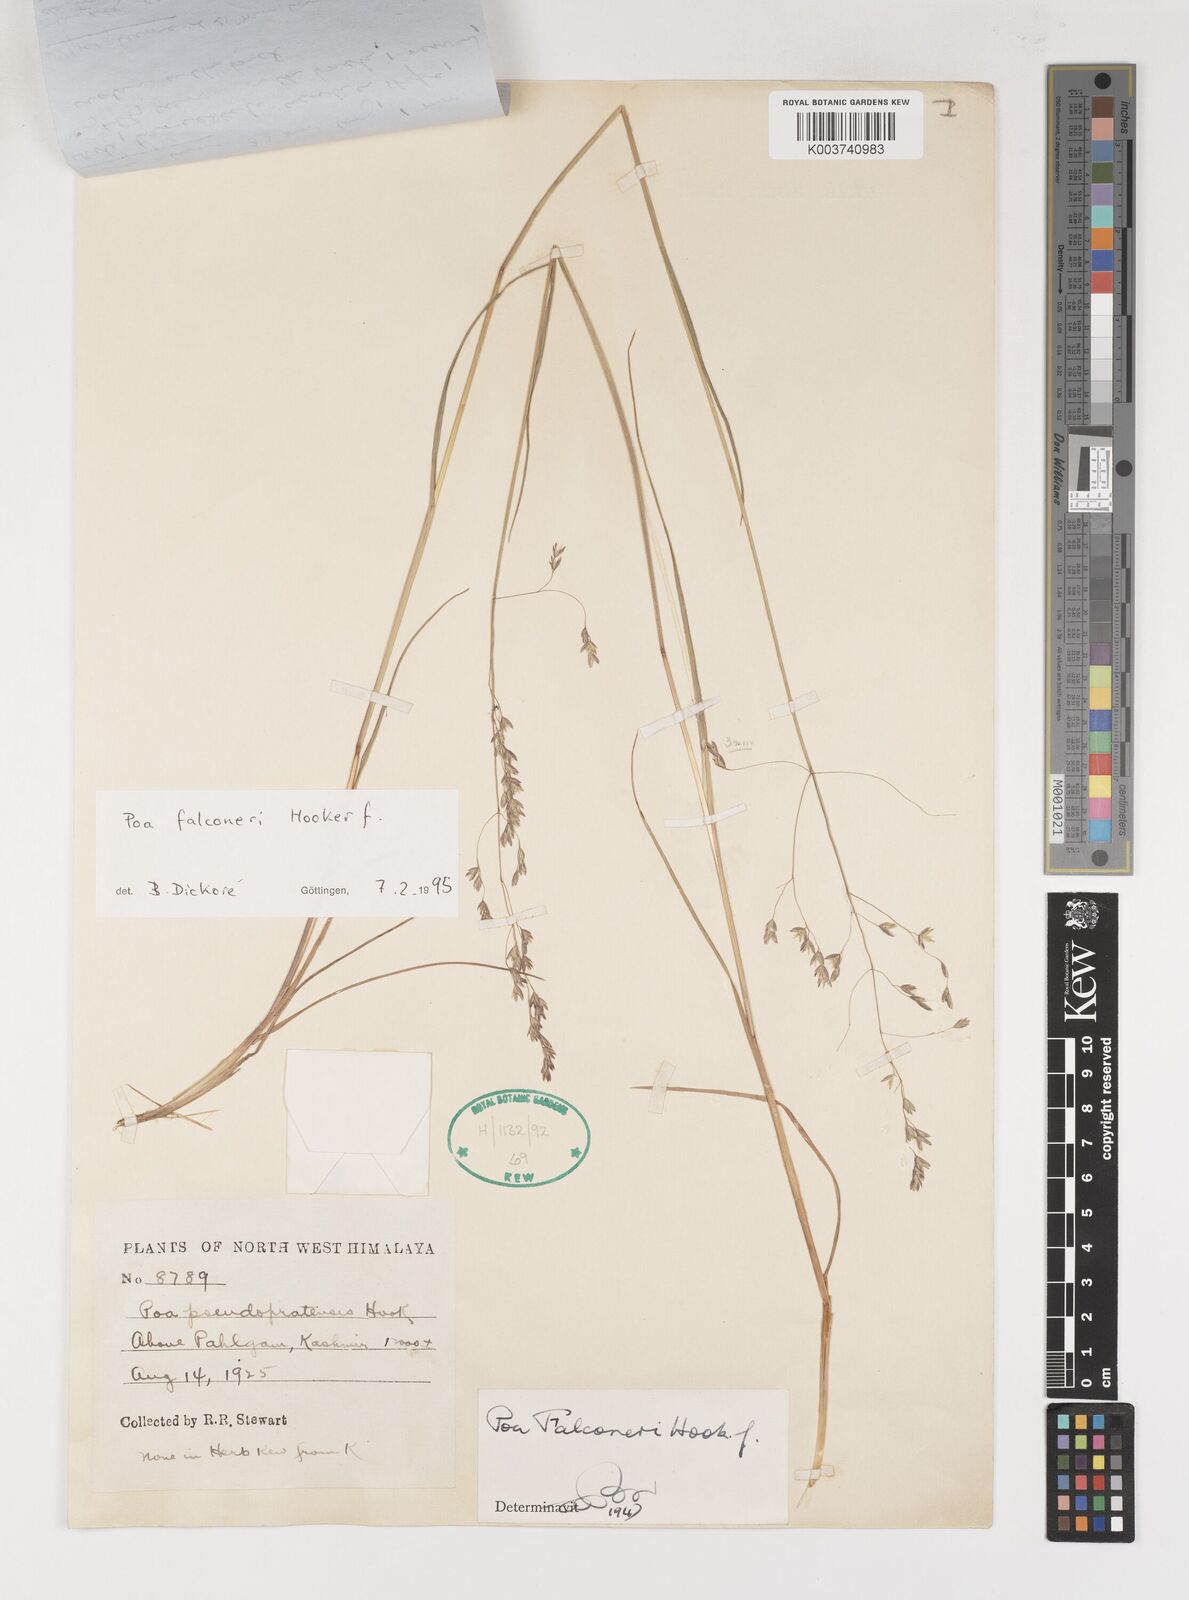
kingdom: Plantae
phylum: Tracheophyta
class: Liliopsida
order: Poales
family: Poaceae
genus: Poa
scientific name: Poa falconeri
